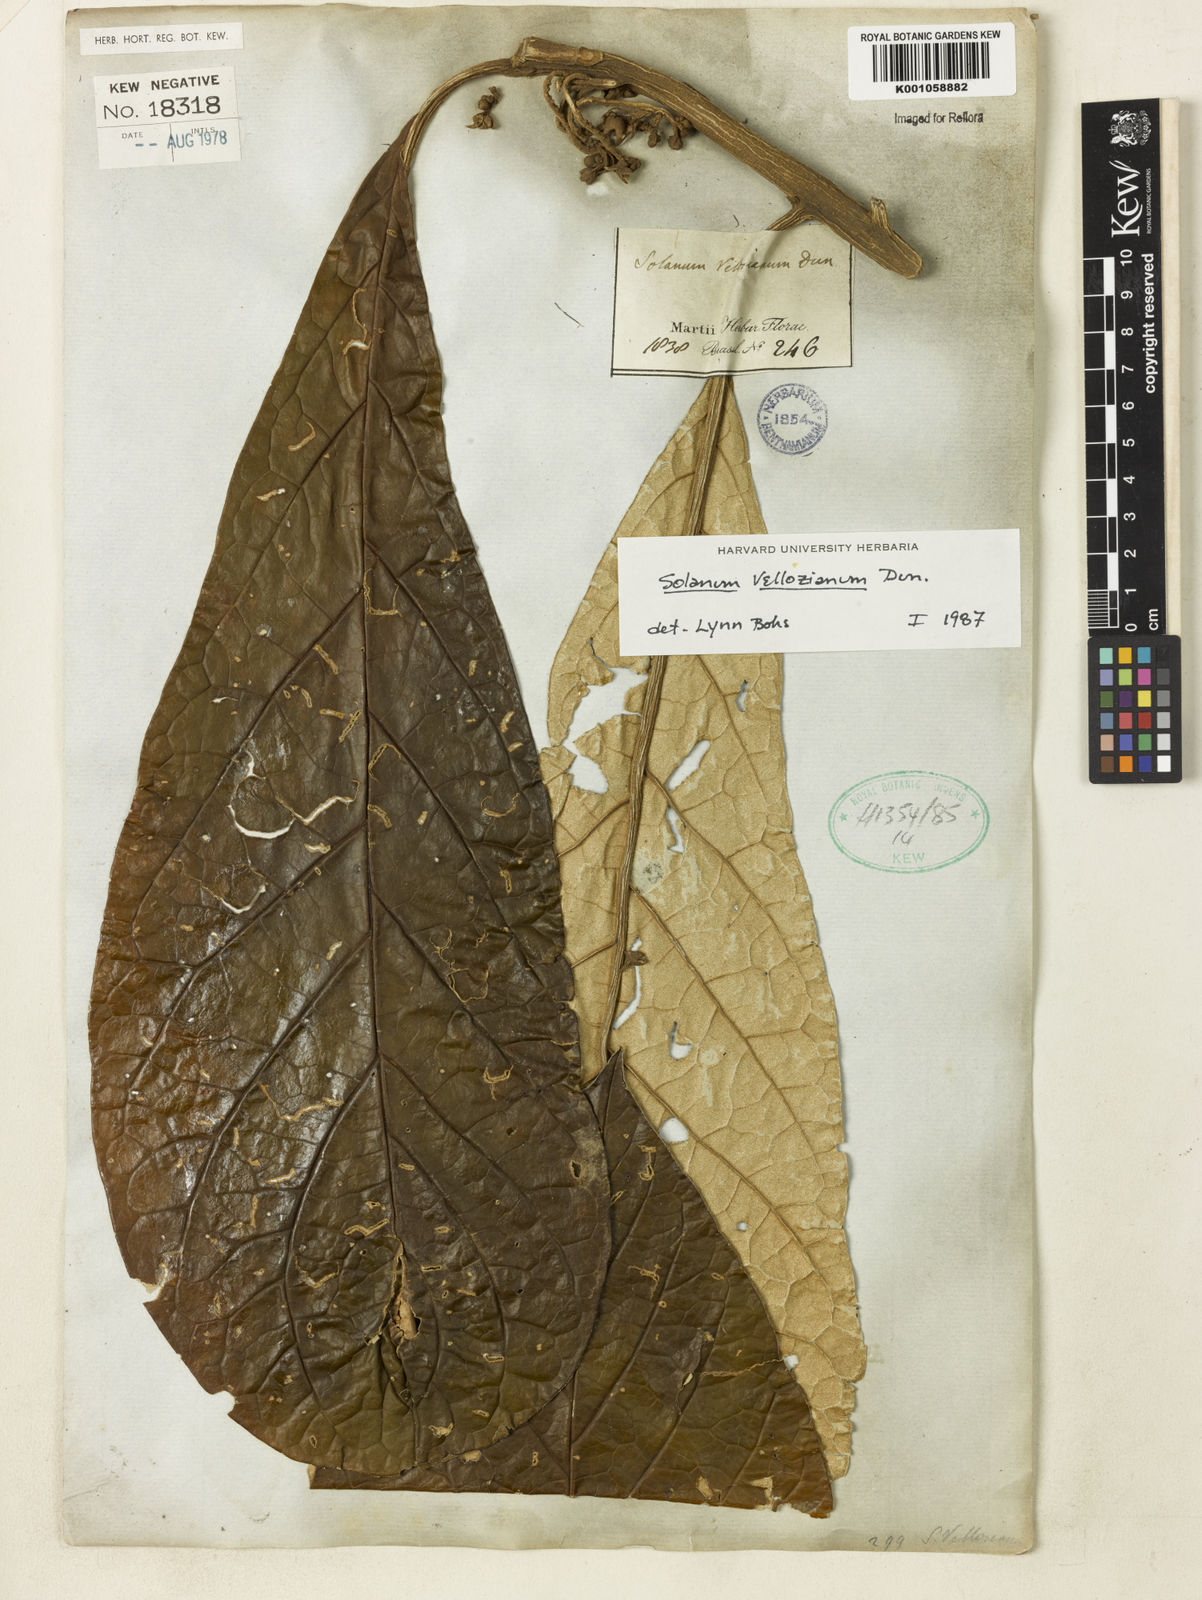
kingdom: Plantae
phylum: Tracheophyta
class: Magnoliopsida
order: Solanales
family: Solanaceae
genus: Solanum
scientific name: Solanum vellozianum
